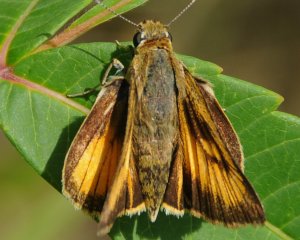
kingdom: Animalia
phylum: Arthropoda
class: Insecta
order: Lepidoptera
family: Hesperiidae
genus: Atrytone
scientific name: Atrytone delaware
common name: Delaware Skipper
